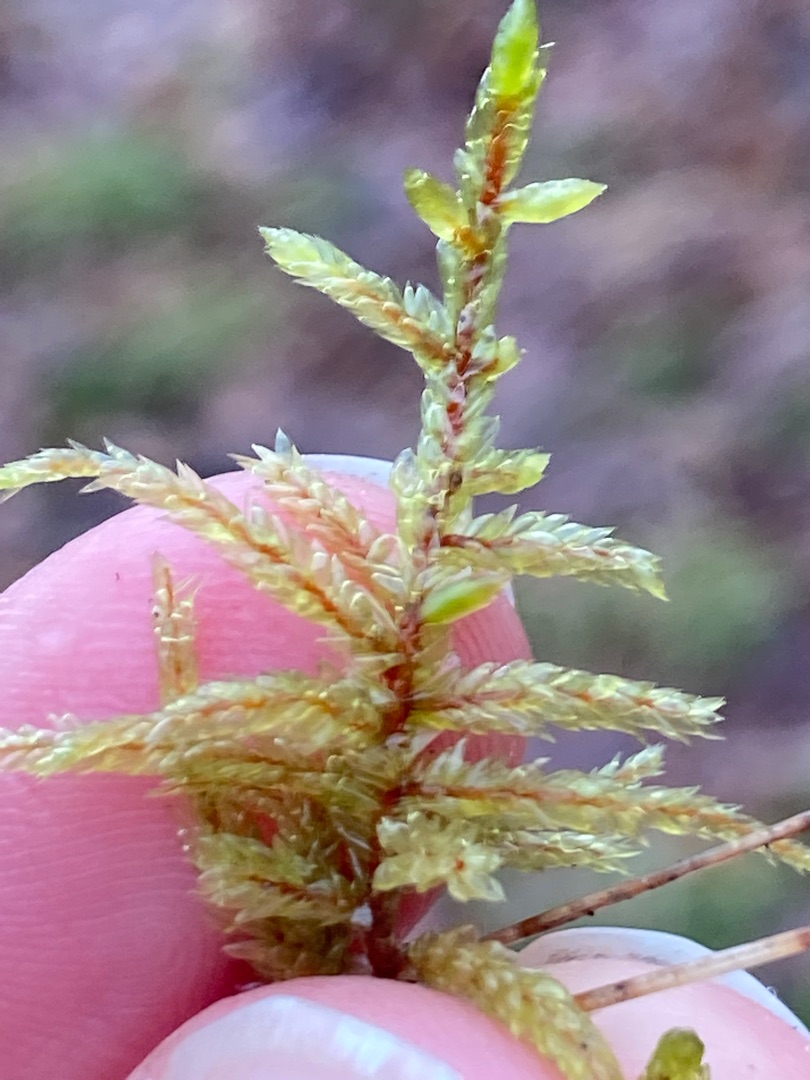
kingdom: Plantae
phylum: Bryophyta
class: Bryopsida
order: Hypnales
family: Hylocomiaceae
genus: Pleurozium
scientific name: Pleurozium schreberi
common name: Trind fyrremos
